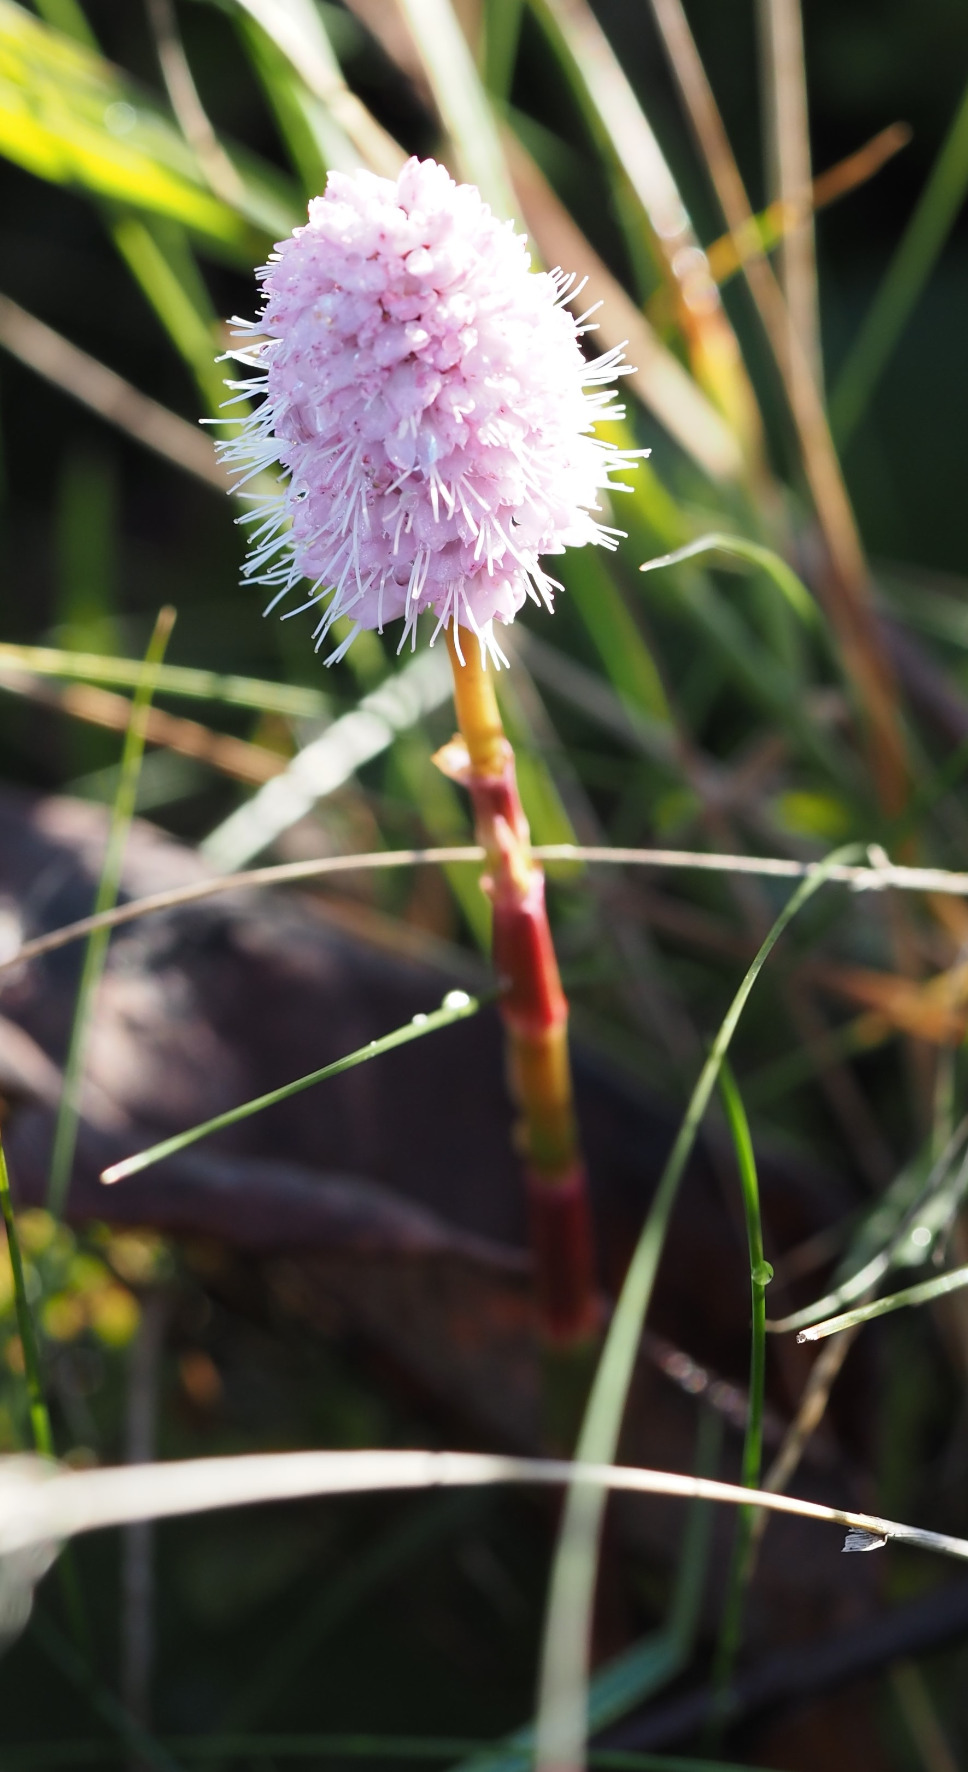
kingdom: Plantae
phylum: Tracheophyta
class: Magnoliopsida
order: Caryophyllales
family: Polygonaceae
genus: Bistorta
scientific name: Bistorta officinalis
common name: Slangeurt
